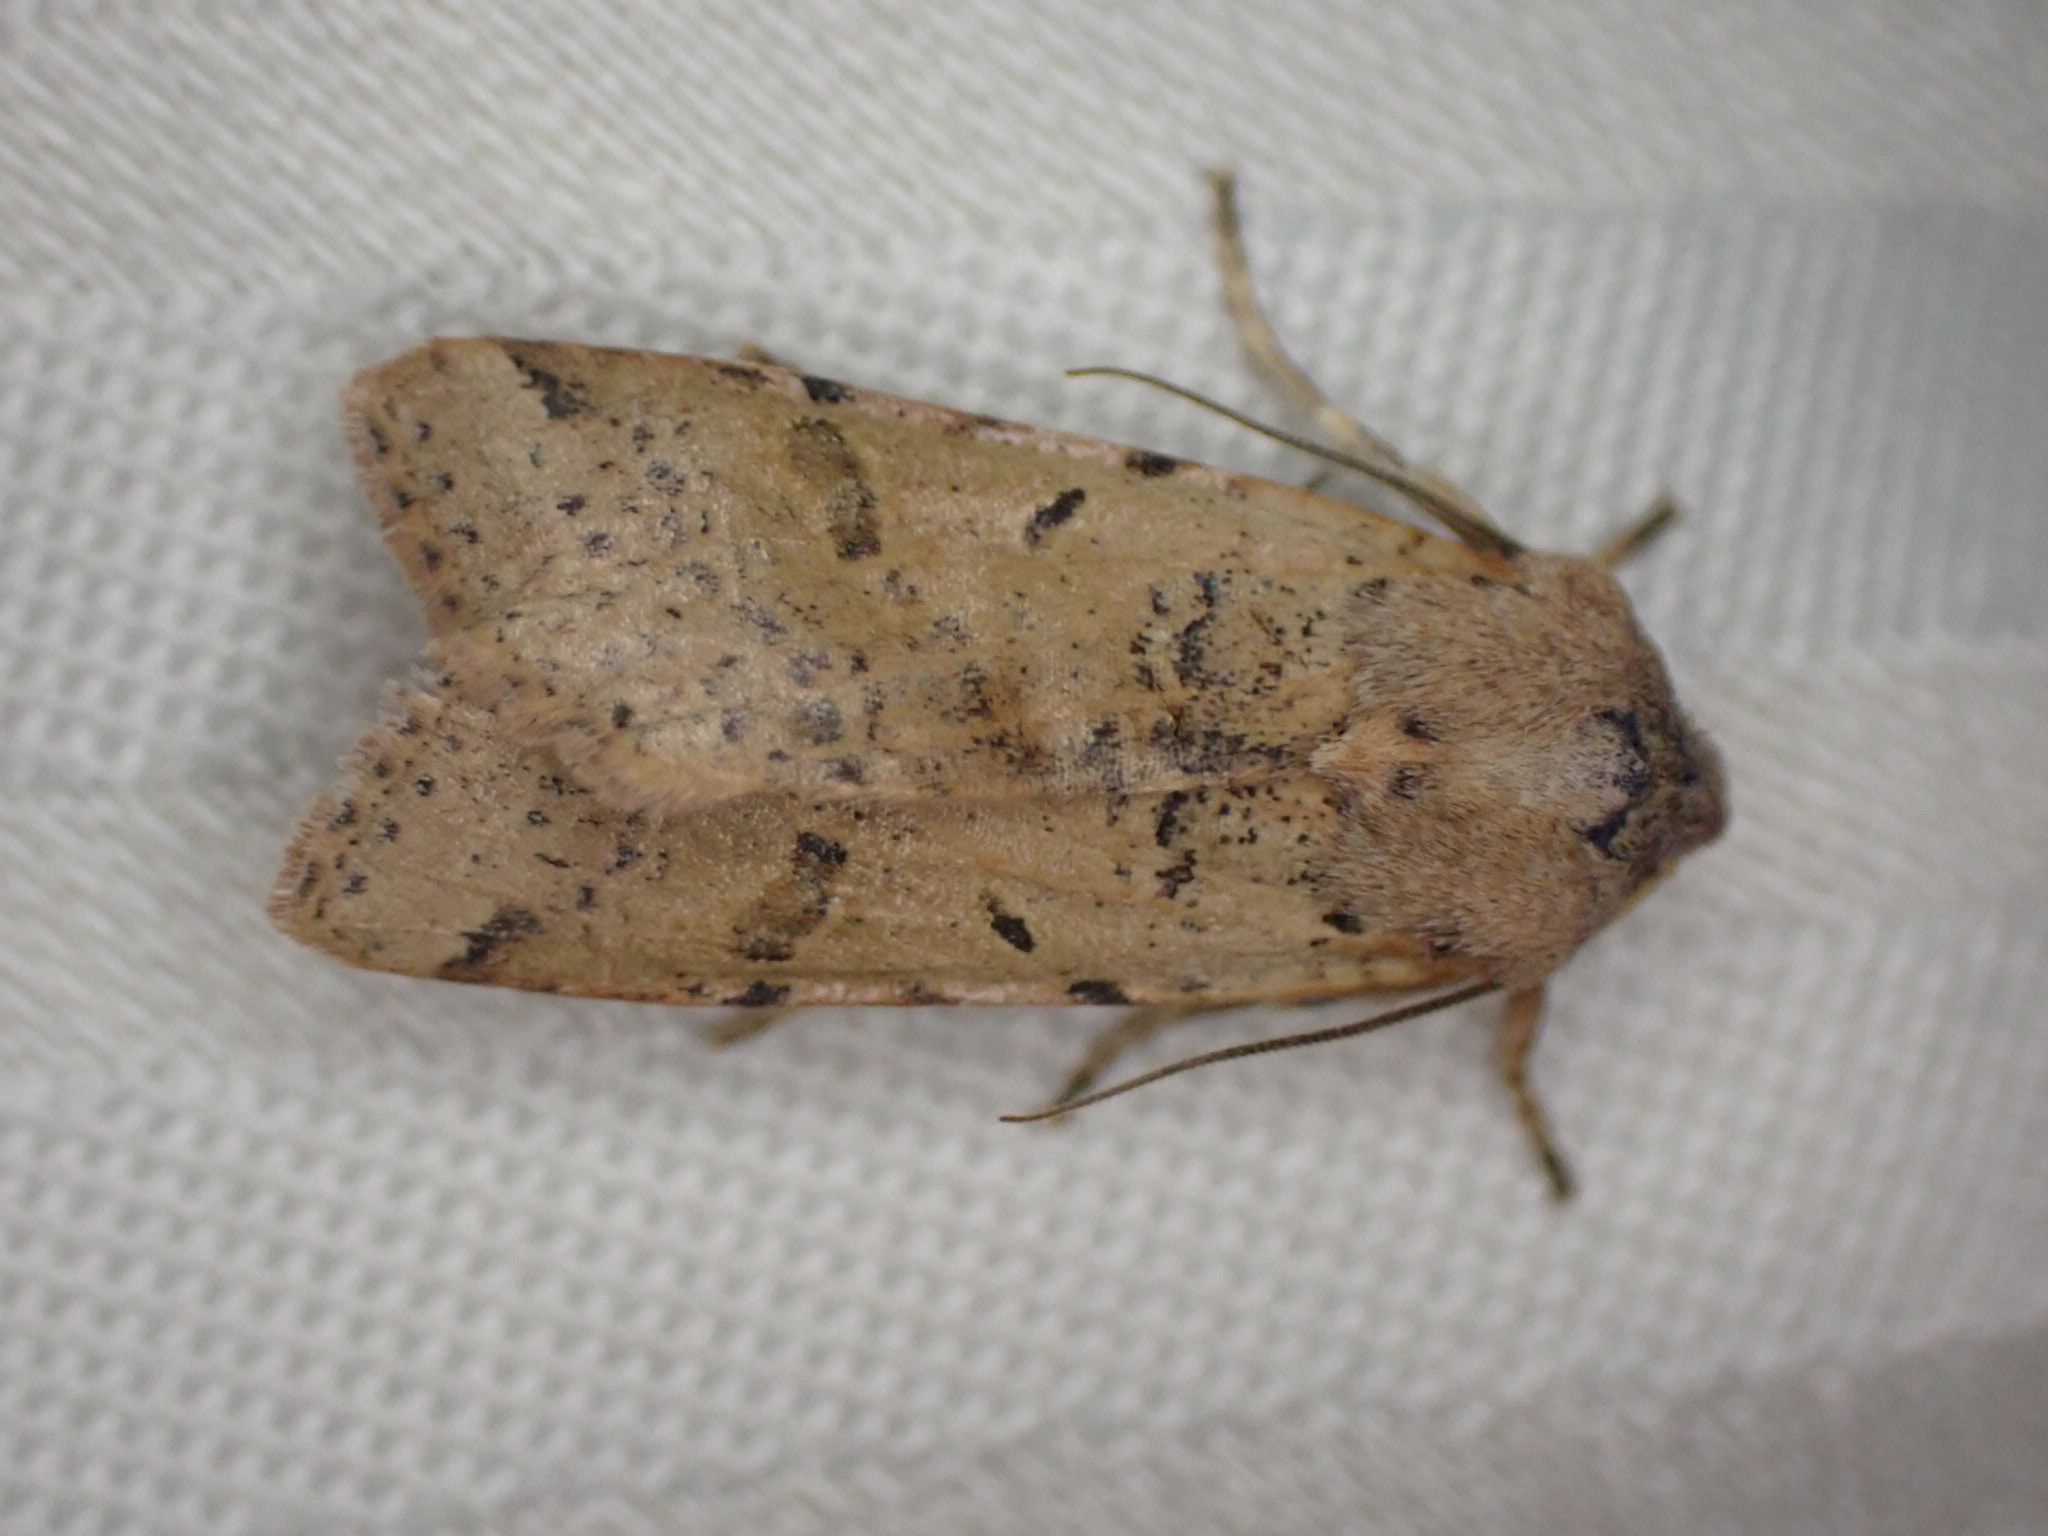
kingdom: Animalia
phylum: Arthropoda
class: Insecta
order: Lepidoptera
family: Noctuidae
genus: Agrochola
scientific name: Agrochola lychnidis
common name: Foranderlig jordfarveugle
